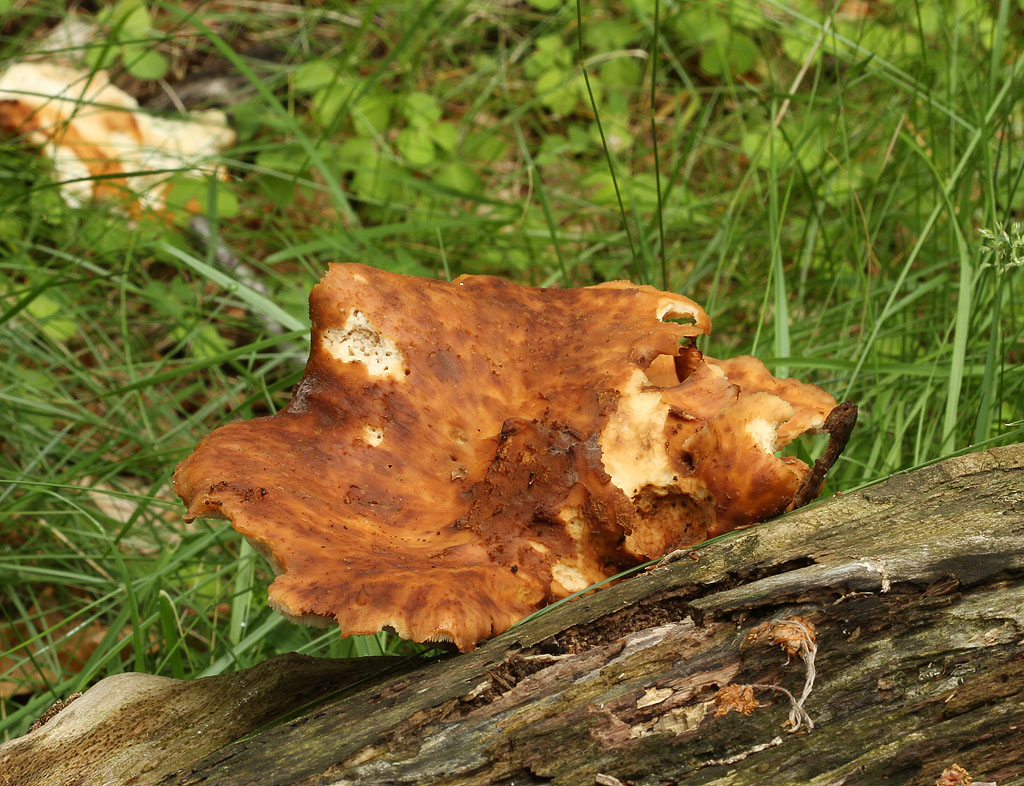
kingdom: Fungi
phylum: Basidiomycota
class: Agaricomycetes
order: Polyporales
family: Polyporaceae
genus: Cerioporus
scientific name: Cerioporus squamosus
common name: skællet stilkporesvamp
